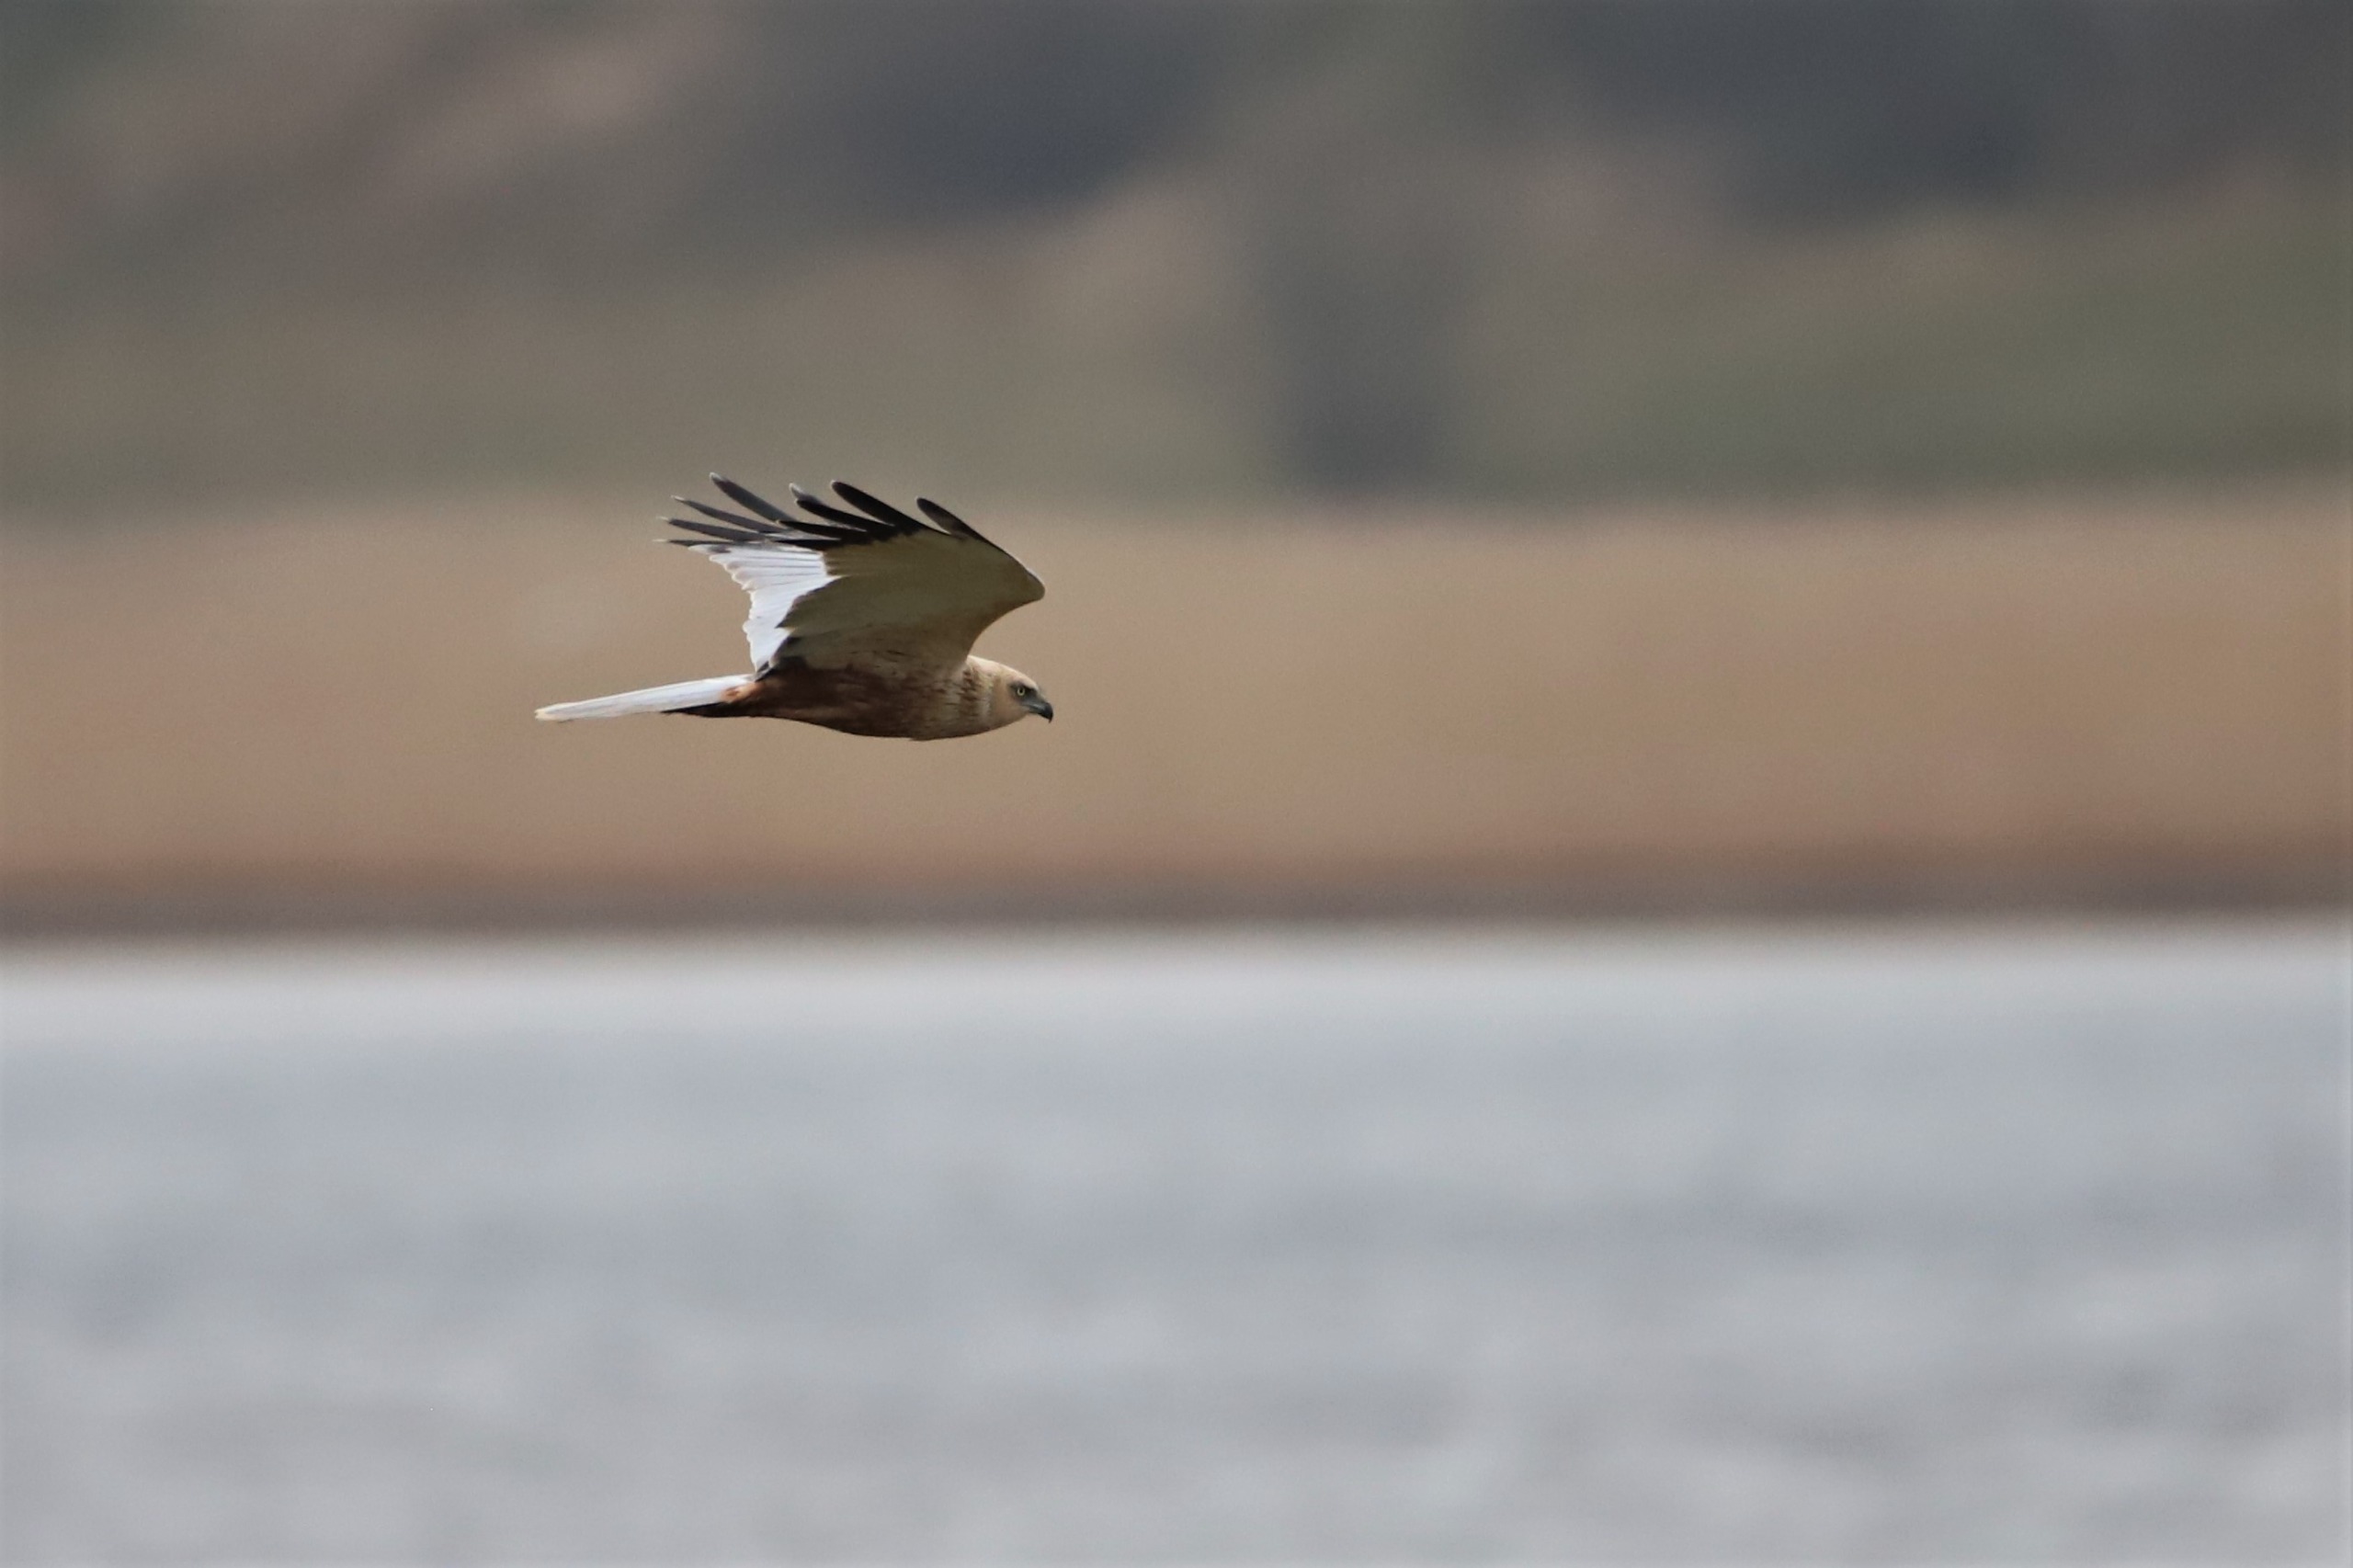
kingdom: Animalia
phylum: Chordata
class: Aves
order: Accipitriformes
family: Accipitridae
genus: Circus
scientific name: Circus aeruginosus
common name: Rørhøg
